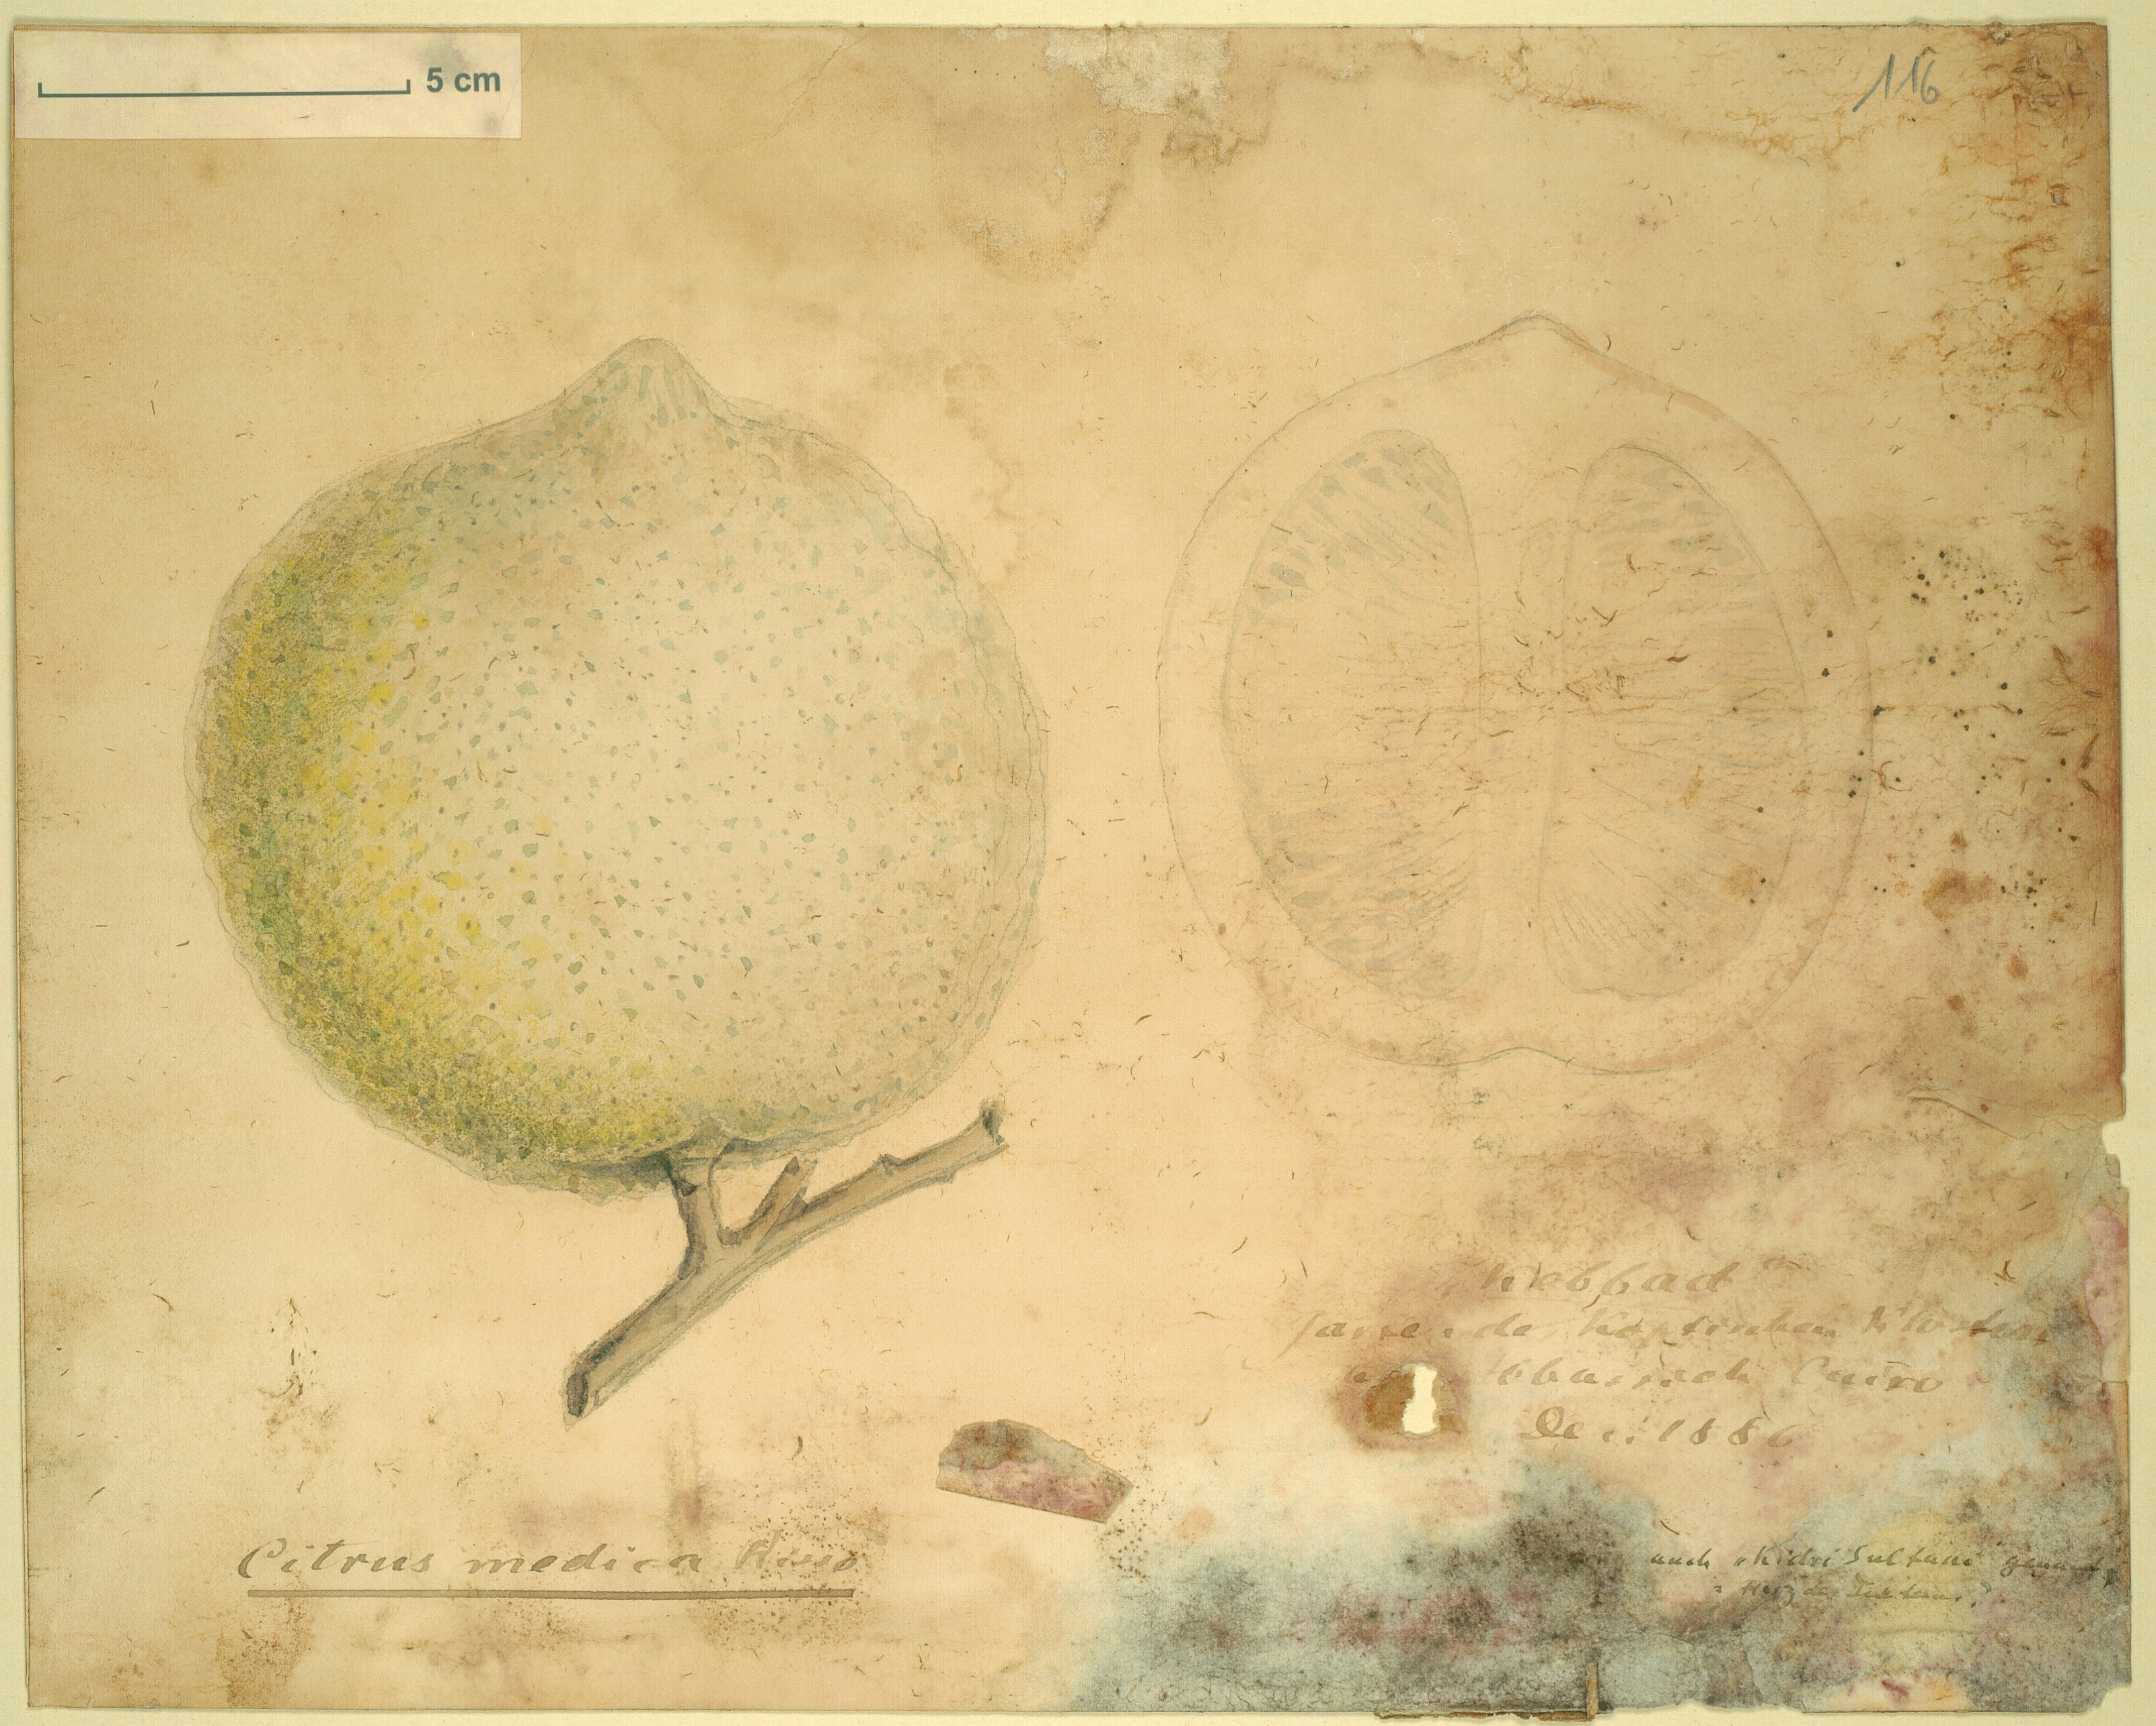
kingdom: Plantae
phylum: Tracheophyta
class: Magnoliopsida
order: Sapindales
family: Rutaceae
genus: Citrus
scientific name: Citrus medica
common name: Citron
